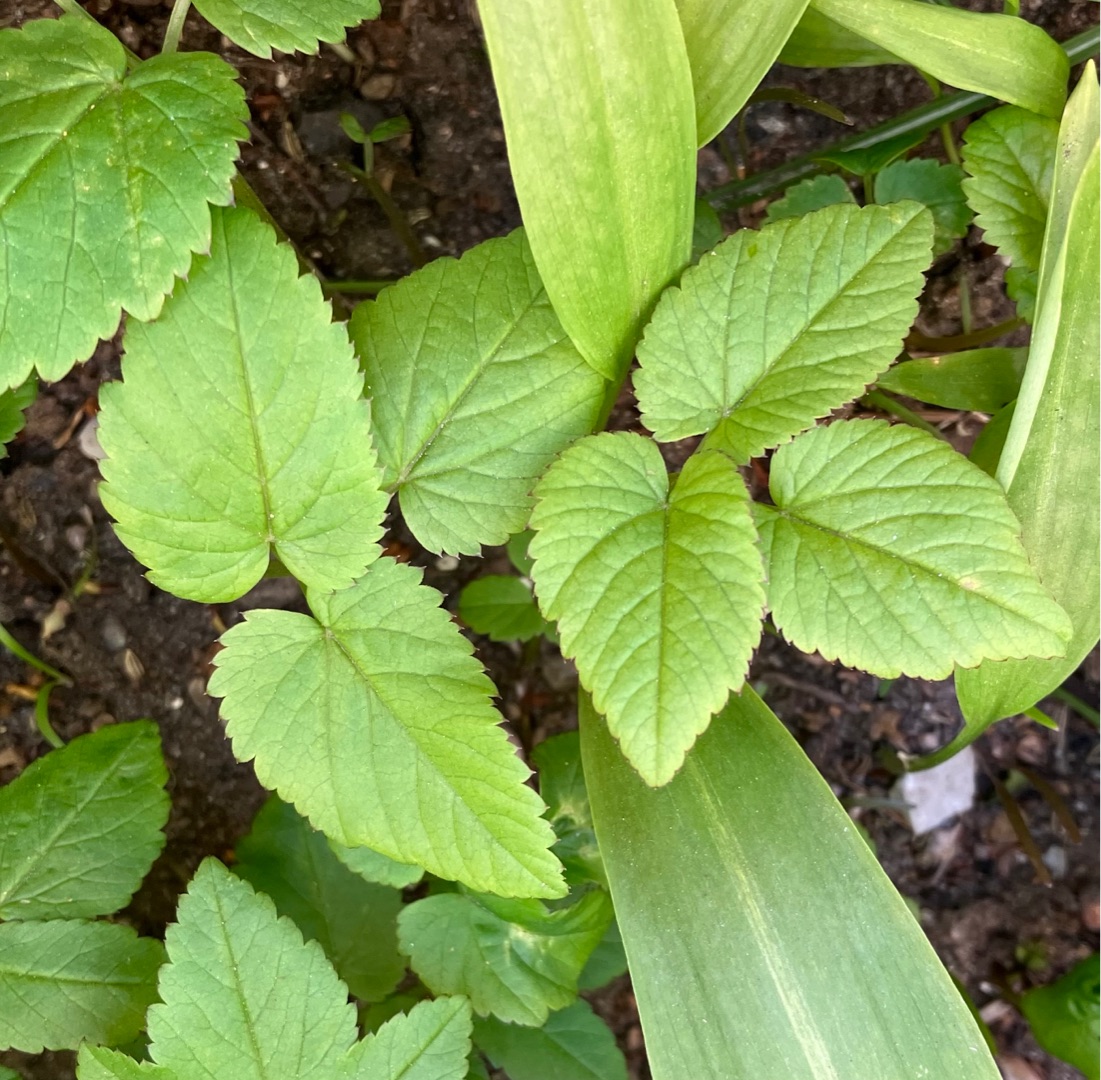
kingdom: Plantae
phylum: Tracheophyta
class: Magnoliopsida
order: Apiales
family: Apiaceae
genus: Aegopodium
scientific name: Aegopodium podagraria
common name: Skvalderkål
